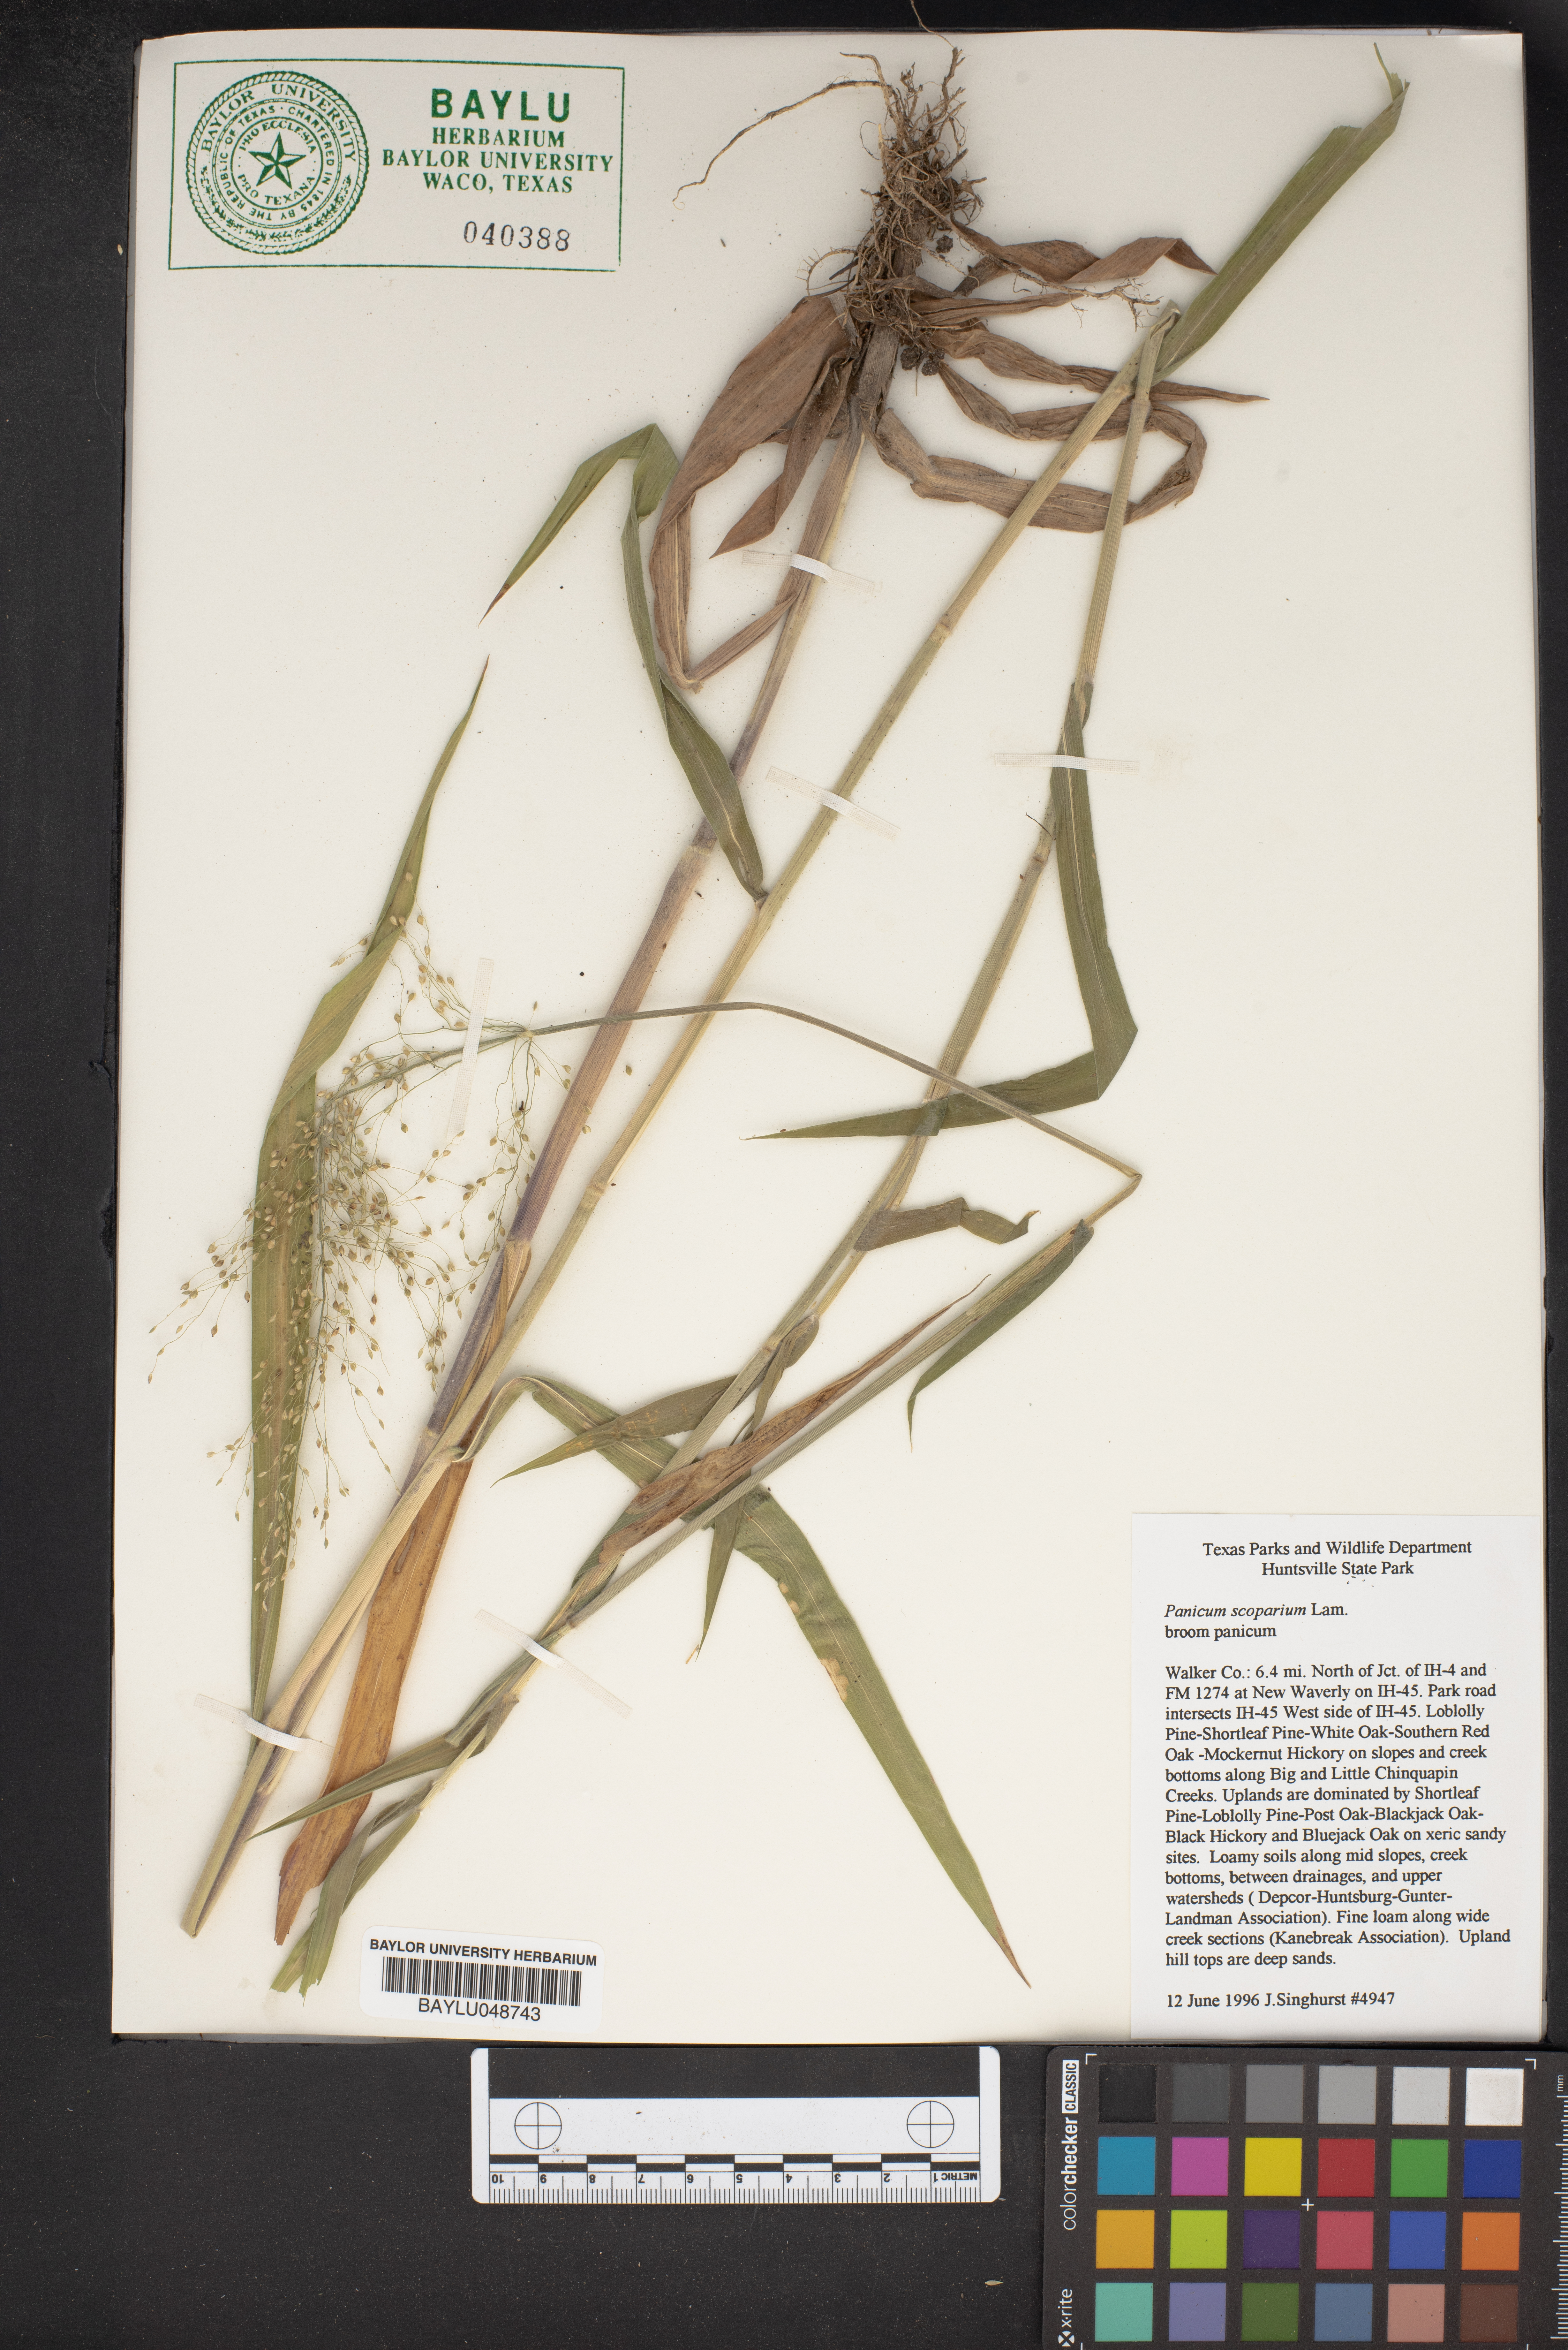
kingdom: Plantae
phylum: Tracheophyta
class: Liliopsida
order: Poales
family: Poaceae
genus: Dichanthelium
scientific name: Dichanthelium scribnerianum
